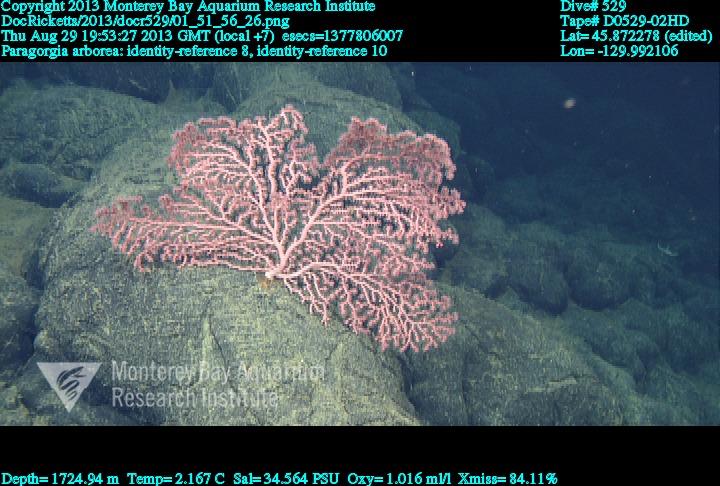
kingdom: Animalia
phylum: Cnidaria
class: Anthozoa
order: Scleralcyonacea
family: Coralliidae
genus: Paragorgia
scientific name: Paragorgia arborea
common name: Bubble gum coral
